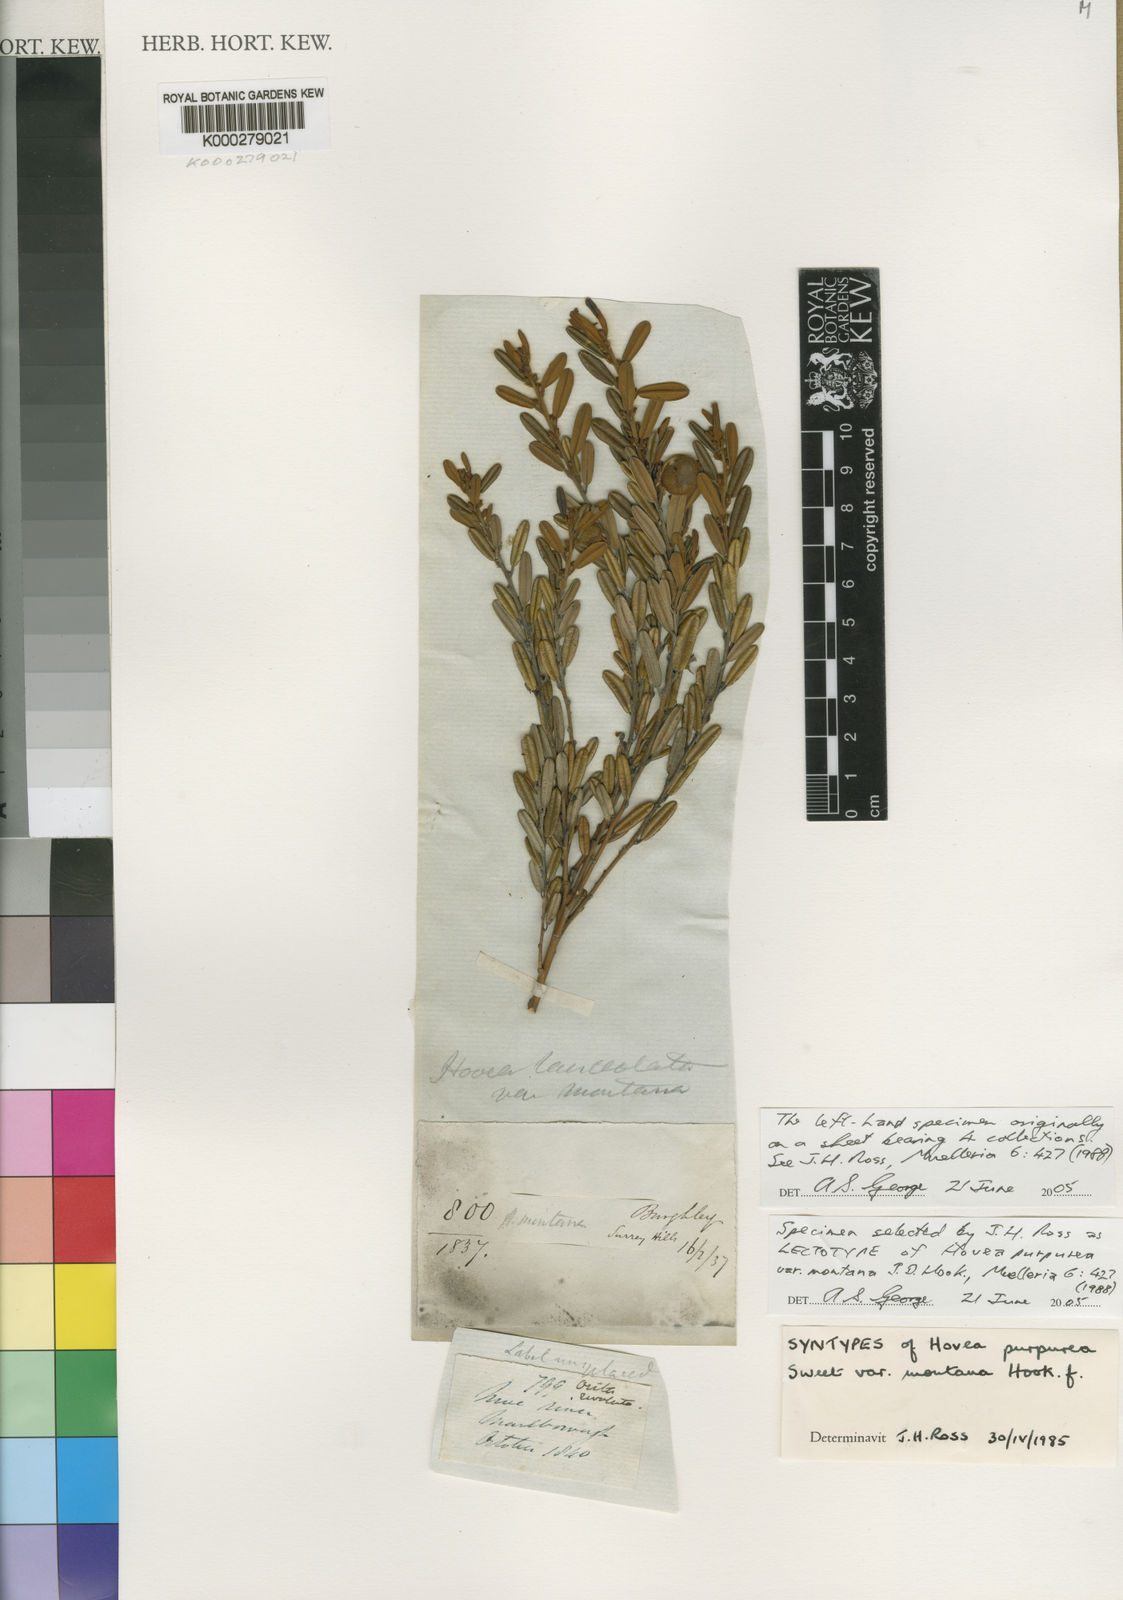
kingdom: Plantae
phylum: Tracheophyta
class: Magnoliopsida
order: Fabales
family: Fabaceae
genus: Hovea
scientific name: Hovea longifolia
